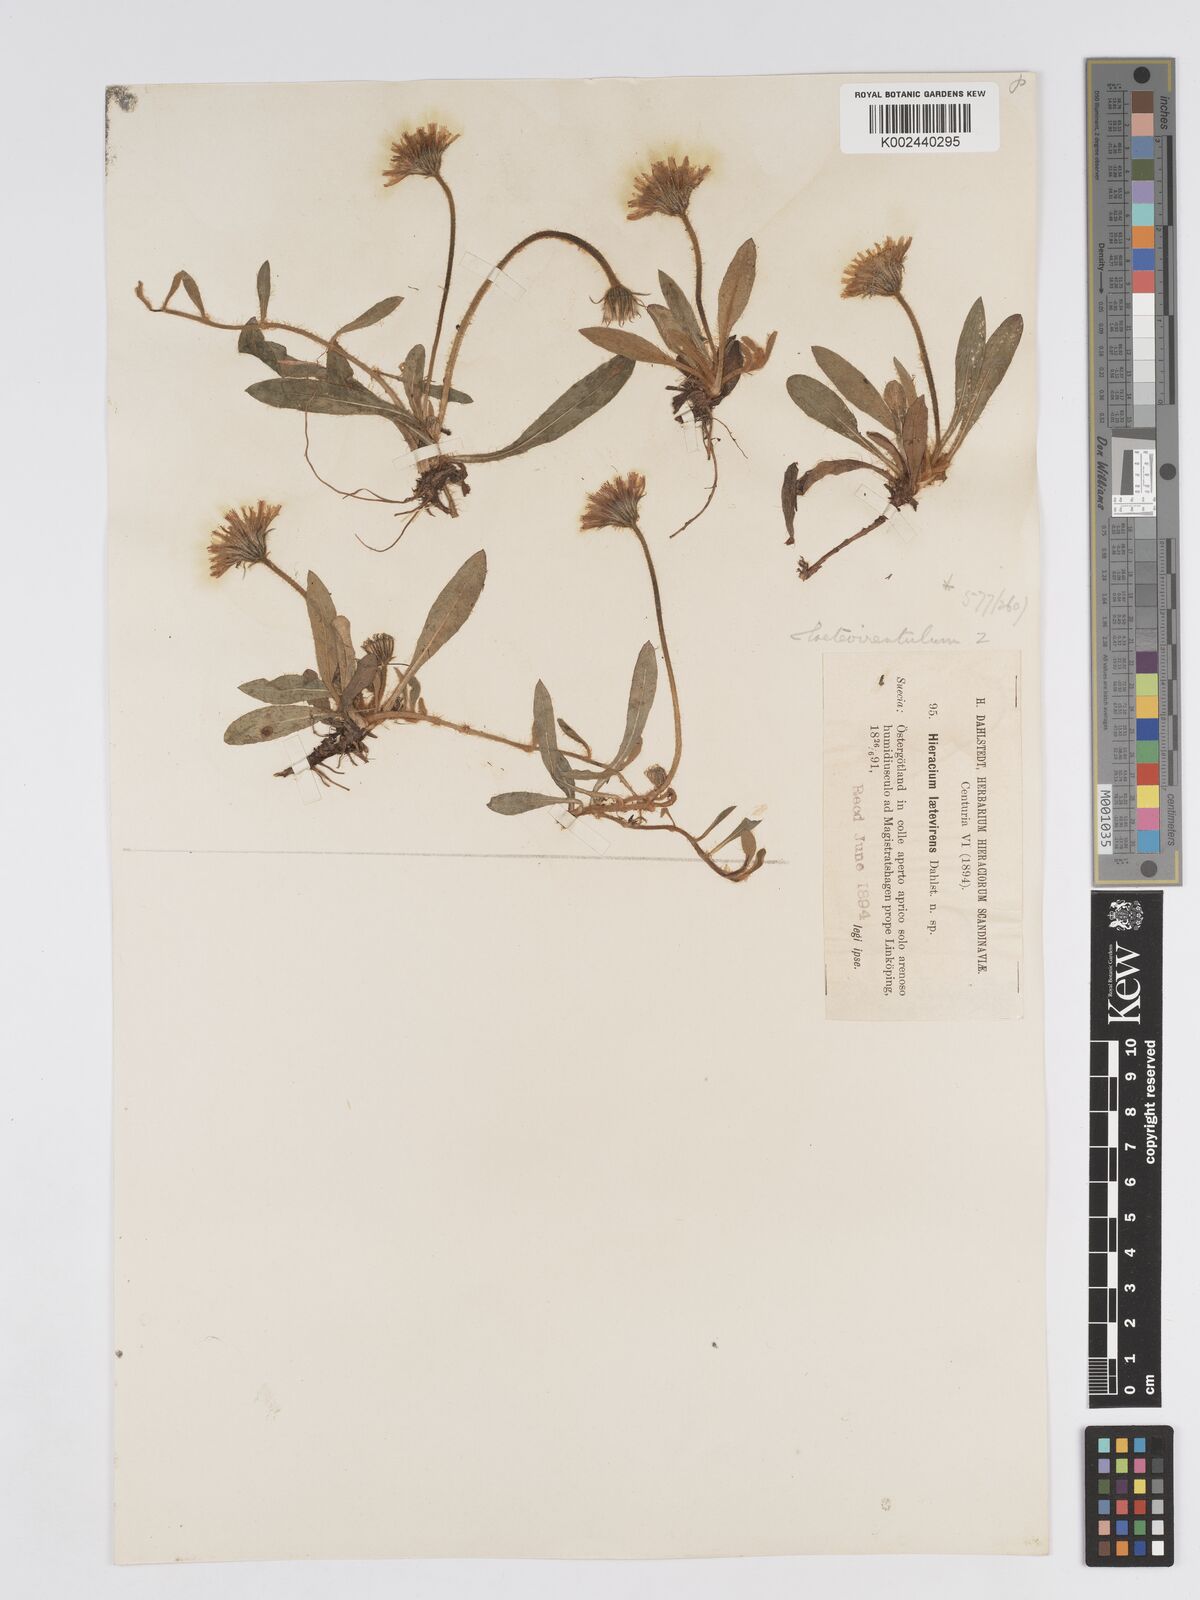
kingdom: Plantae
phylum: Tracheophyta
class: Magnoliopsida
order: Asterales
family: Asteraceae
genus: Pilosella
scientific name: Pilosella officinarum
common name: Mouse-ear hawkweed
